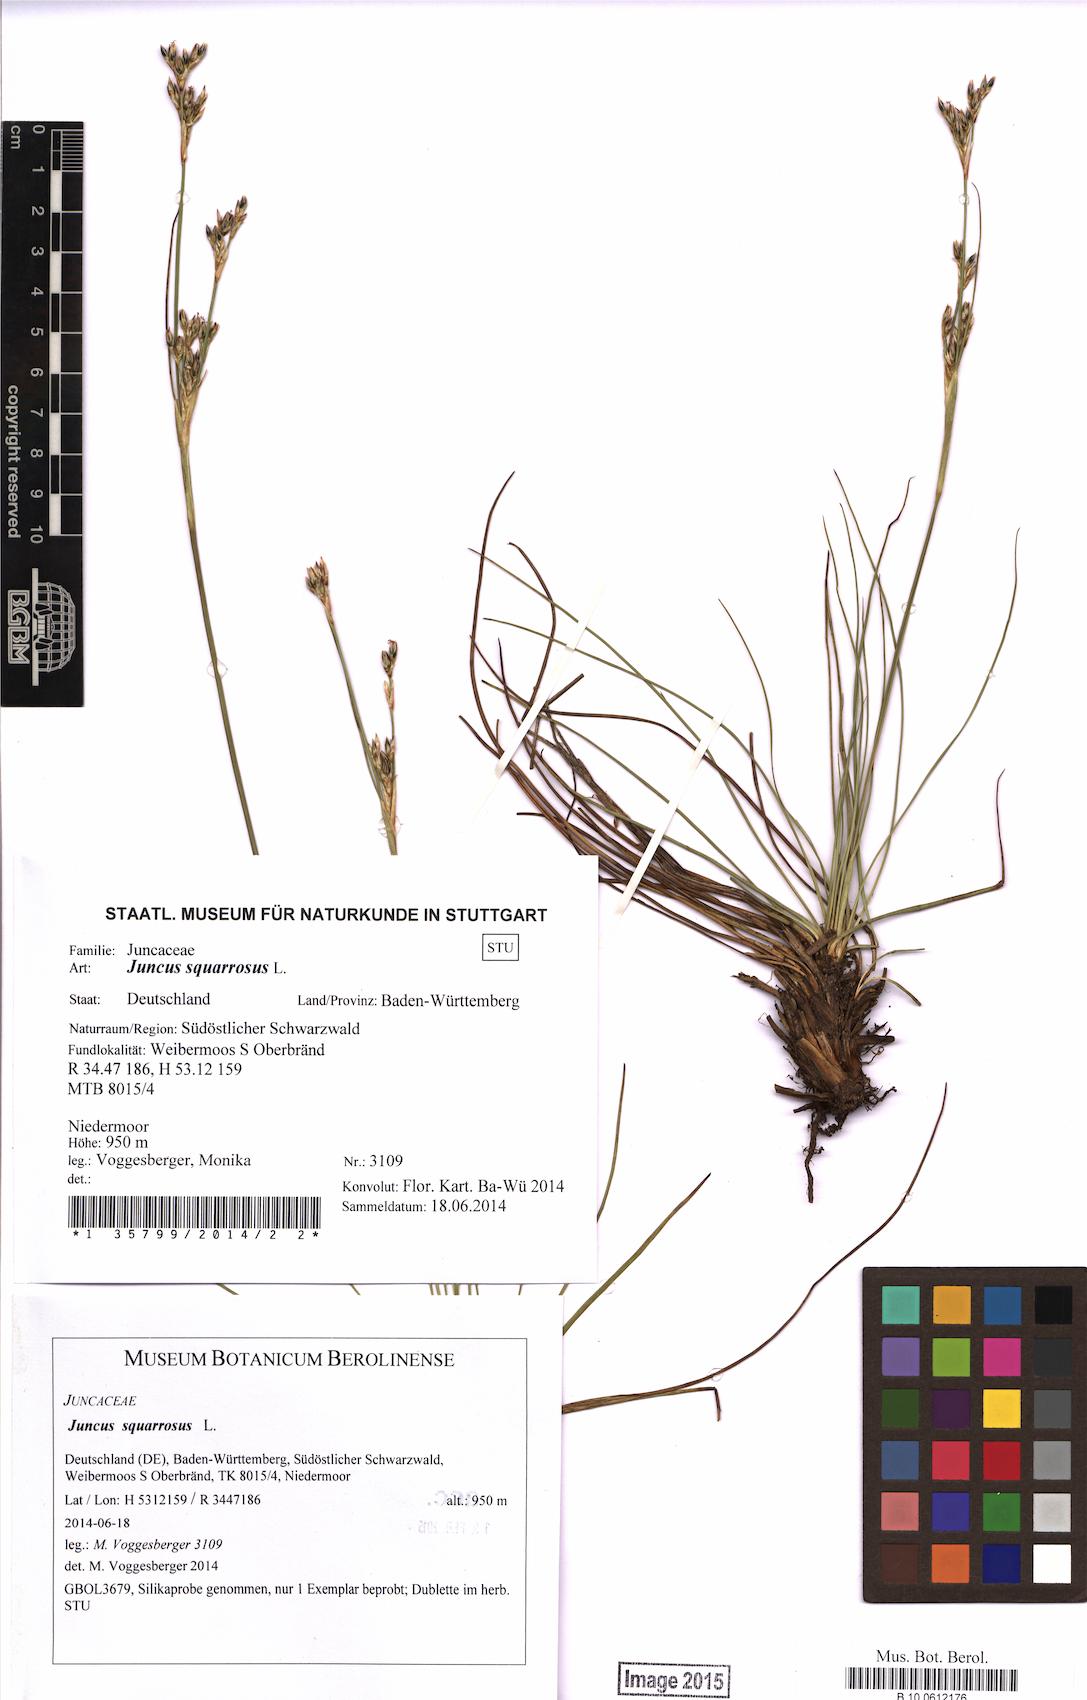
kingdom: Plantae
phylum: Tracheophyta
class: Liliopsida
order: Poales
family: Juncaceae
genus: Juncus
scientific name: Juncus squarrosus
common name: Heath rush
